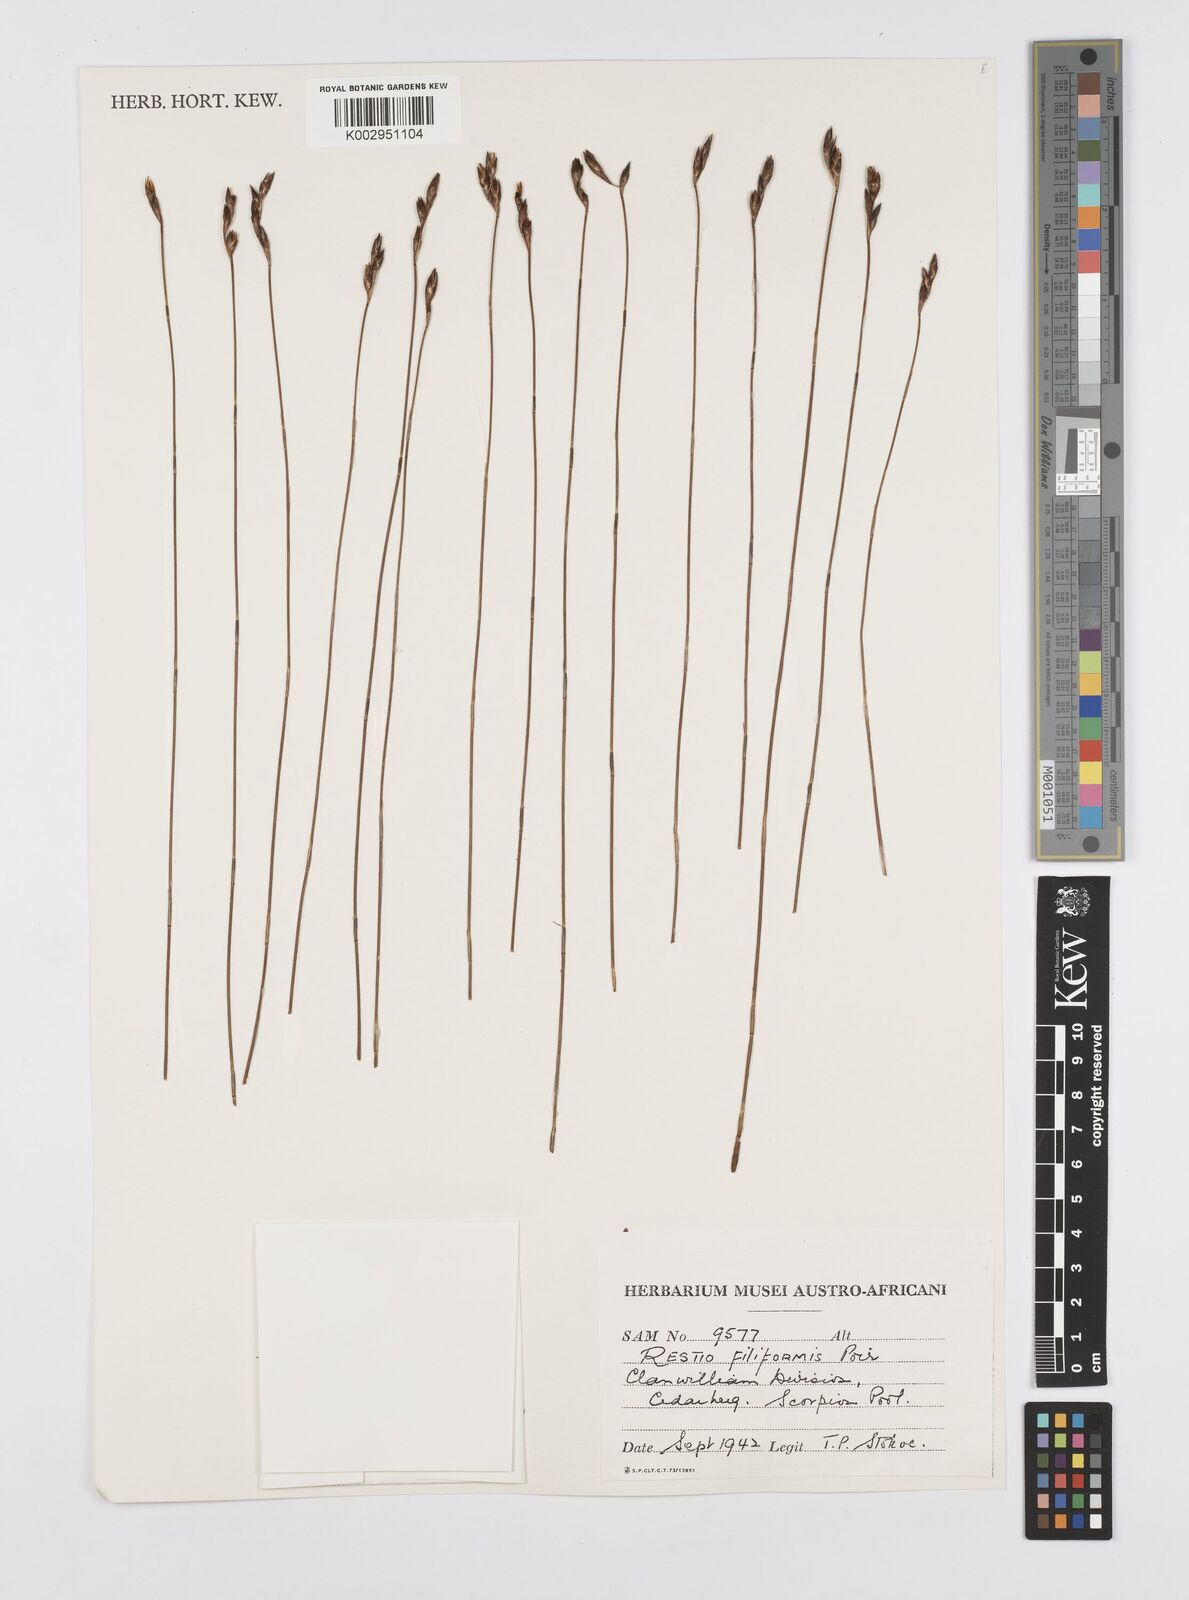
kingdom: Plantae
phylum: Tracheophyta
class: Liliopsida
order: Poales
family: Restionaceae
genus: Restio
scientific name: Restio filiformis
